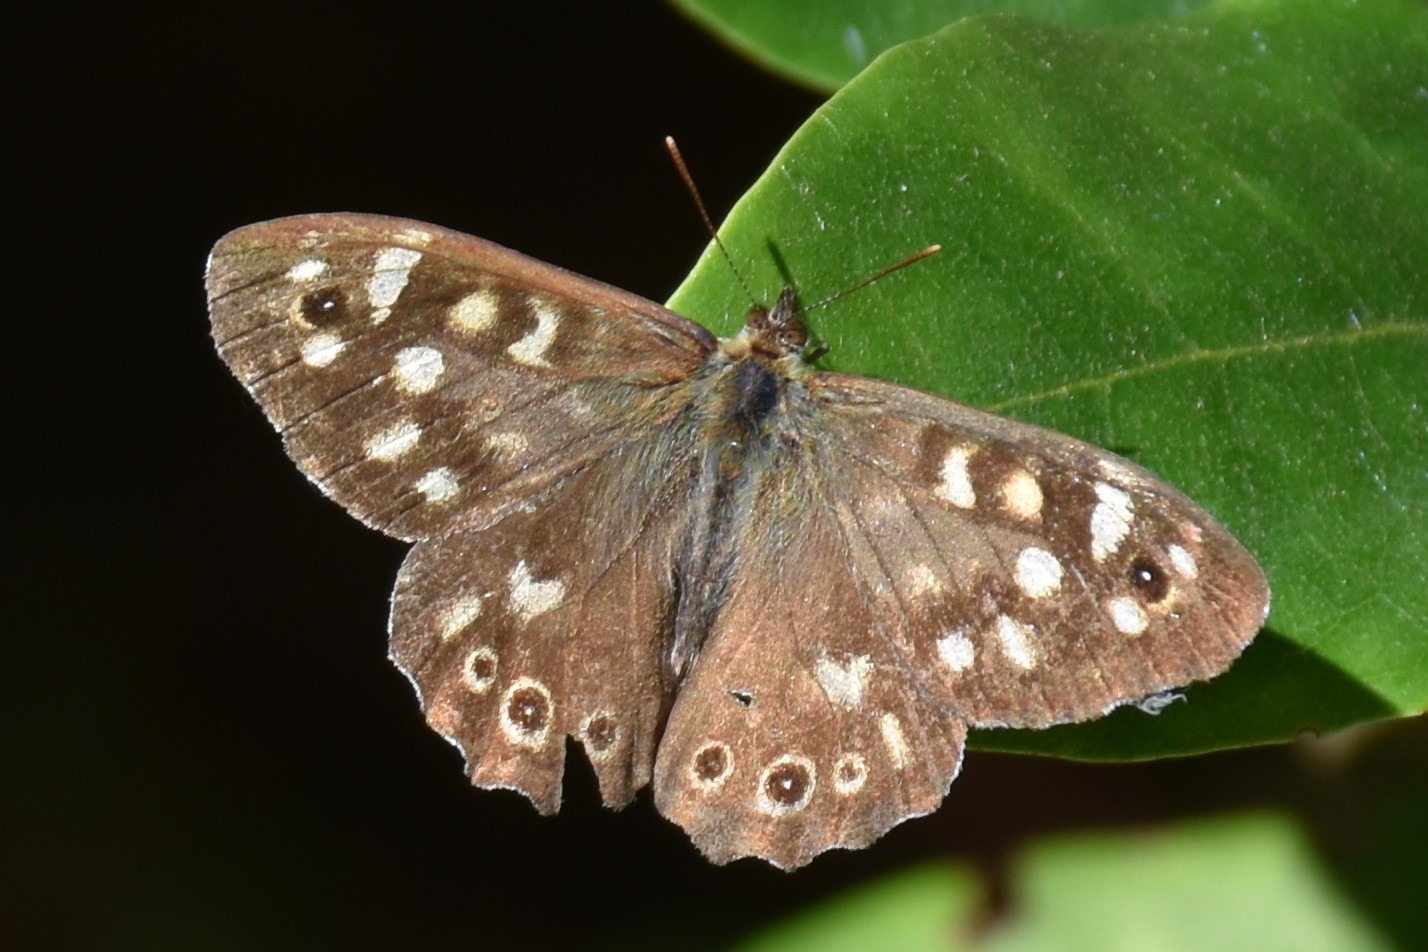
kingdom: Animalia
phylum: Arthropoda
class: Insecta
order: Lepidoptera
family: Nymphalidae
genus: Pararge
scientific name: Pararge aegeria
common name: Skovrandøje
